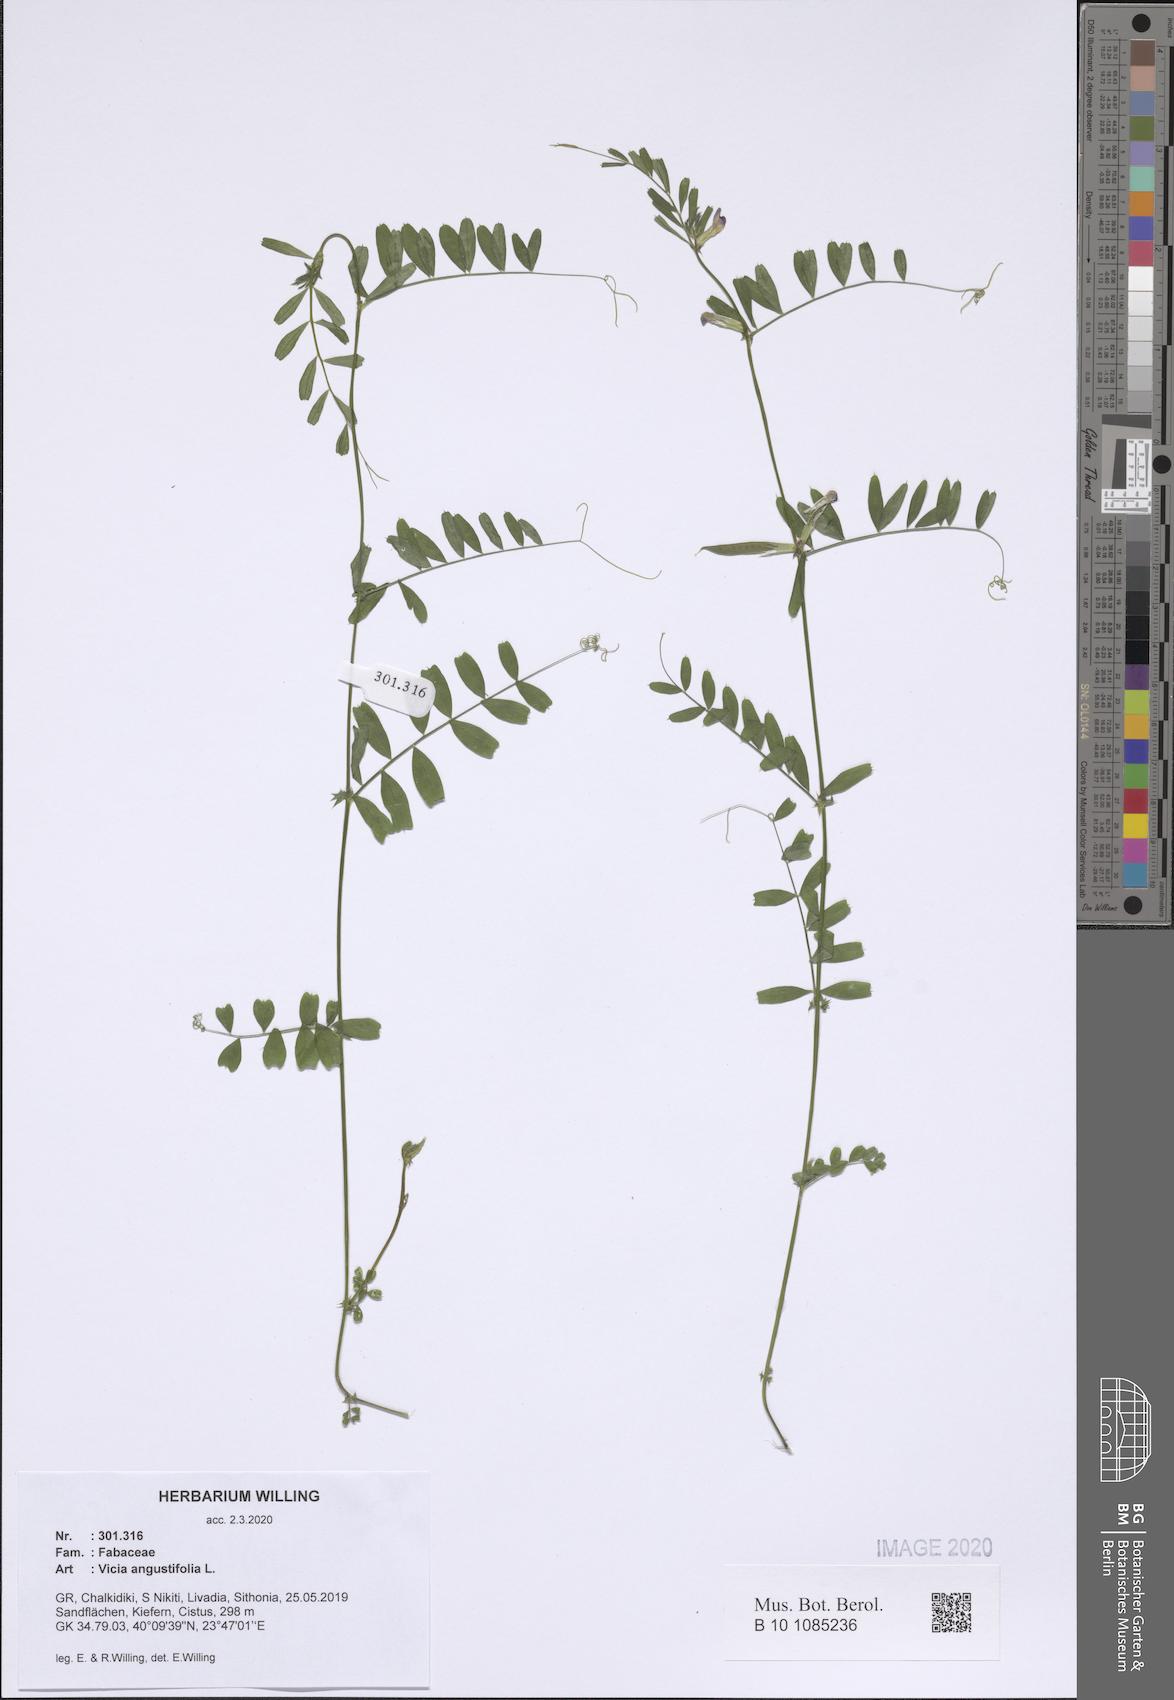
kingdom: Plantae
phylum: Tracheophyta
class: Magnoliopsida
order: Fabales
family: Fabaceae
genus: Vicia
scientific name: Vicia sativa
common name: Garden vetch
